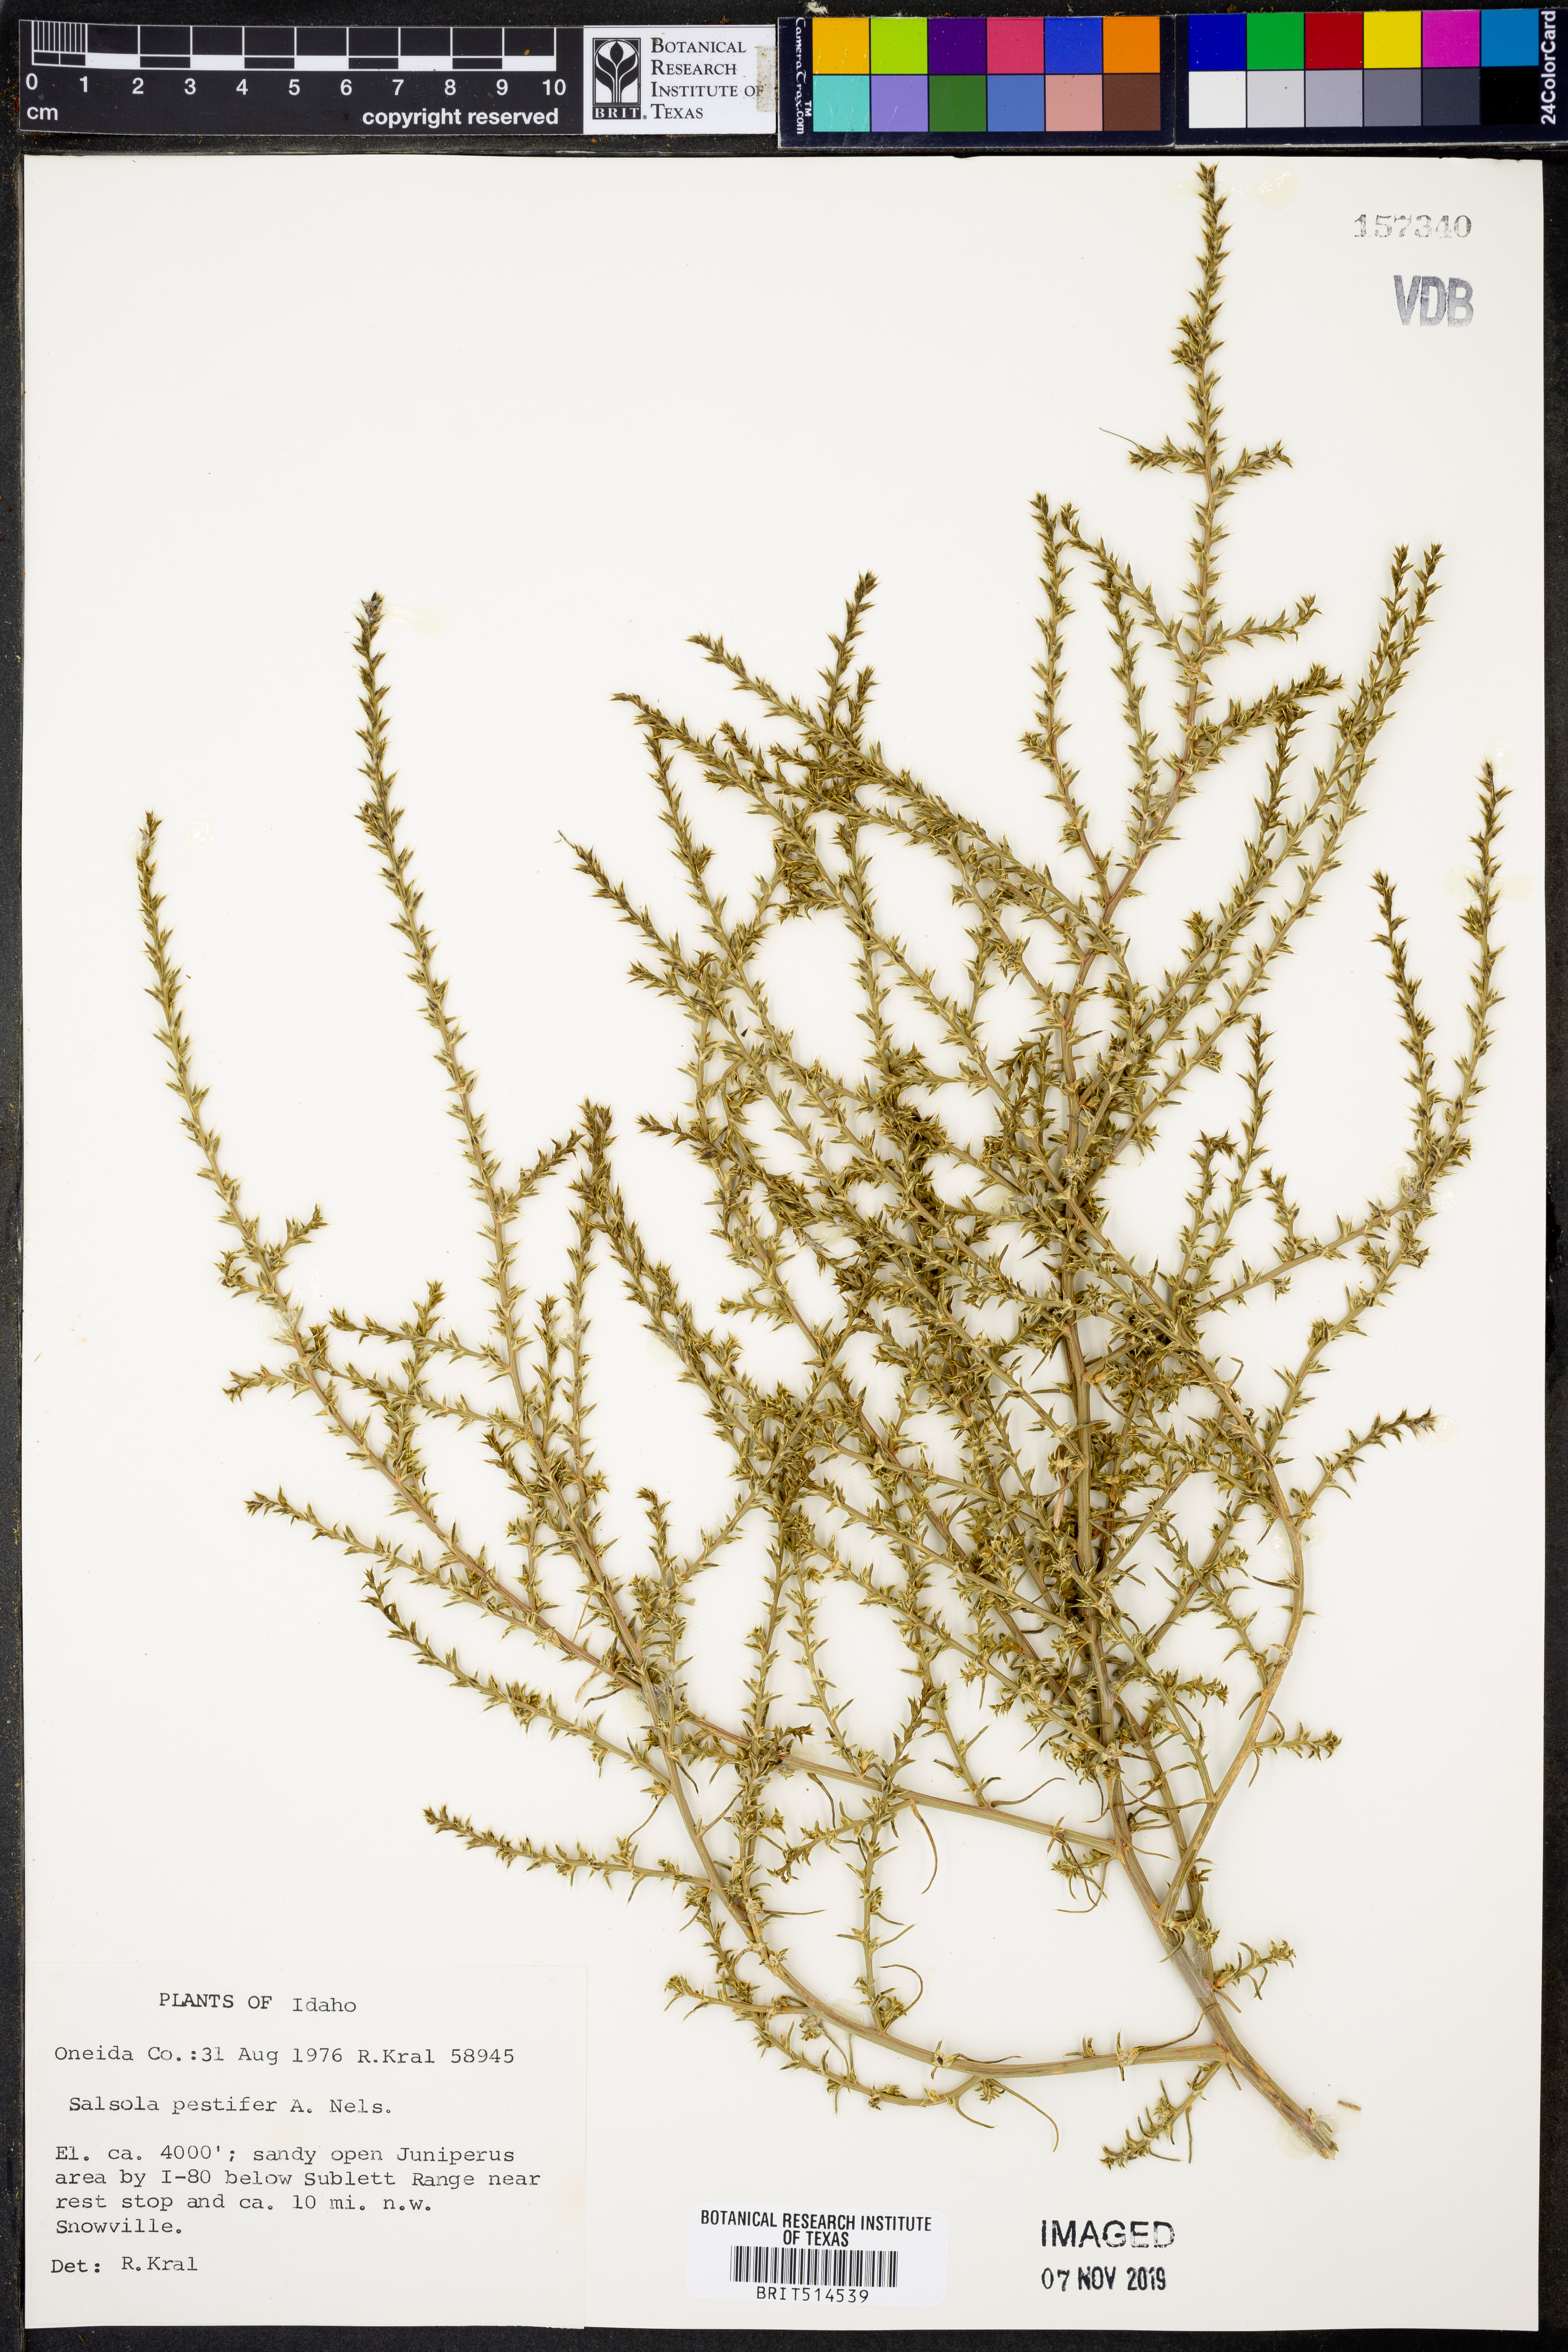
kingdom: Plantae
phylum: Tracheophyta
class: Magnoliopsida
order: Caryophyllales
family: Amaranthaceae
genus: Salsola
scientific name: Salsola tragus
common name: Prickly russian thistle
